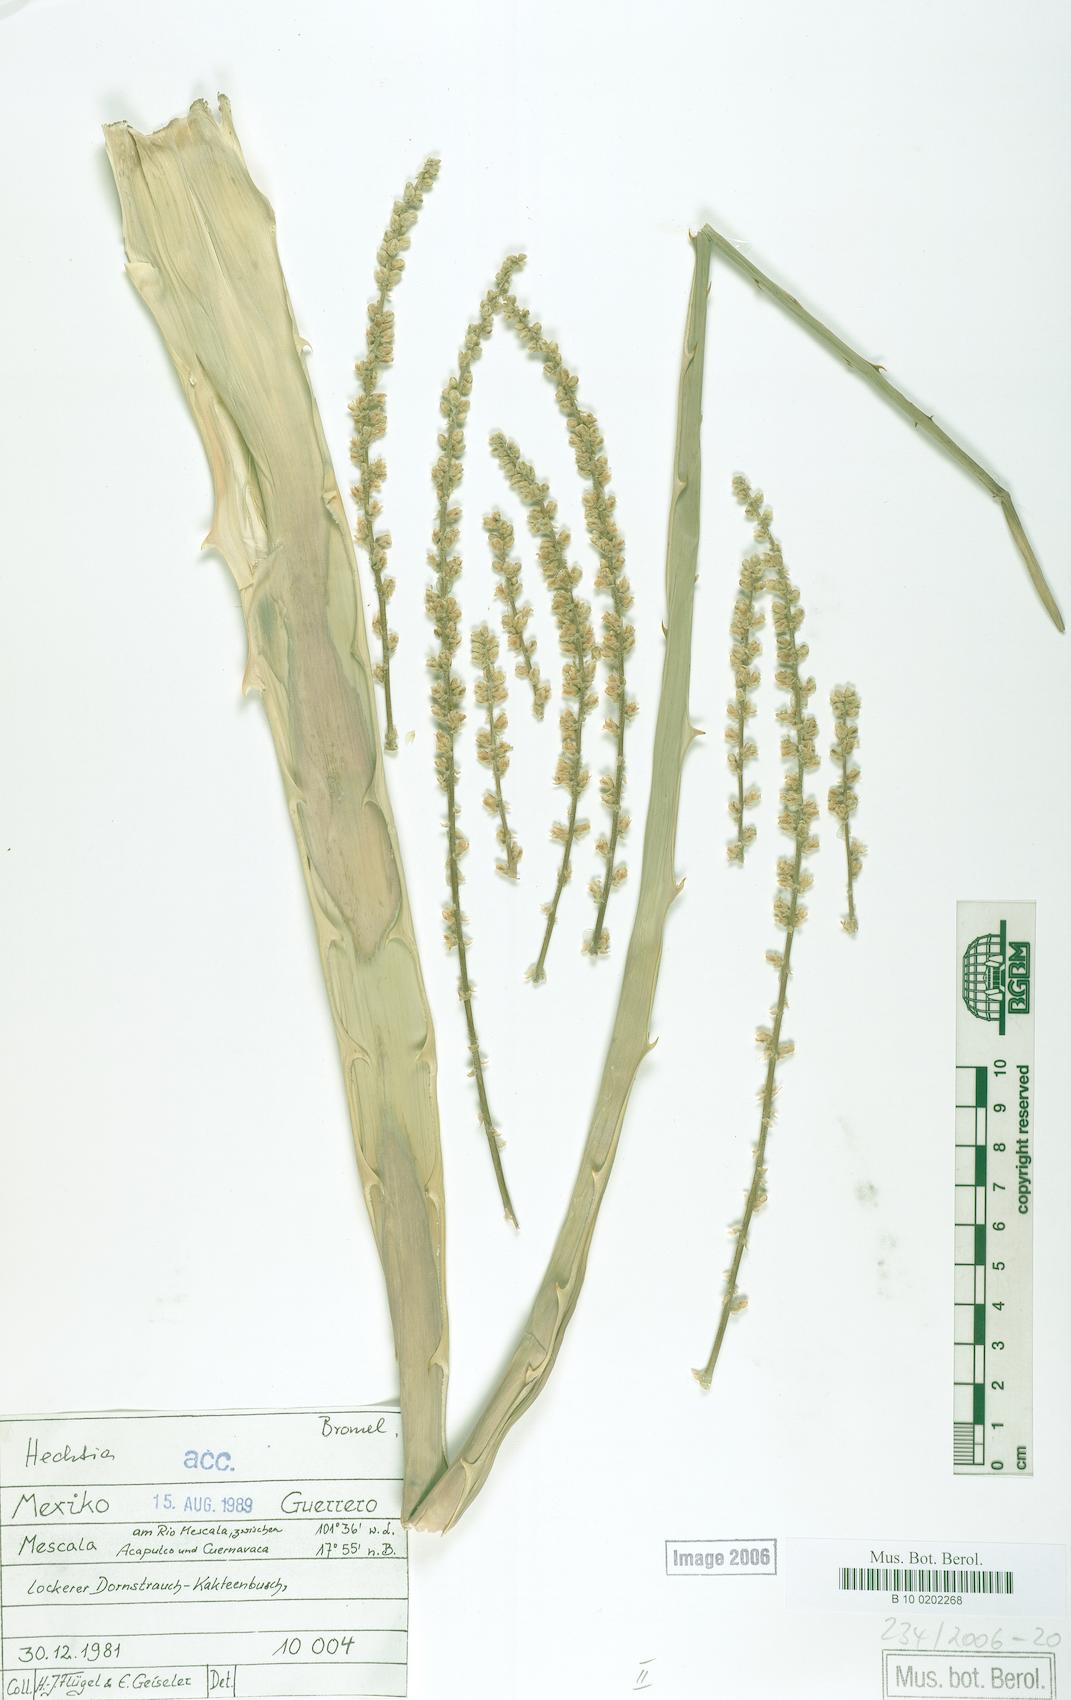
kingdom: Plantae
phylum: Tracheophyta
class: Liliopsida
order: Poales
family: Bromeliaceae
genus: Hechtia
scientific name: Hechtia melanocarpa
